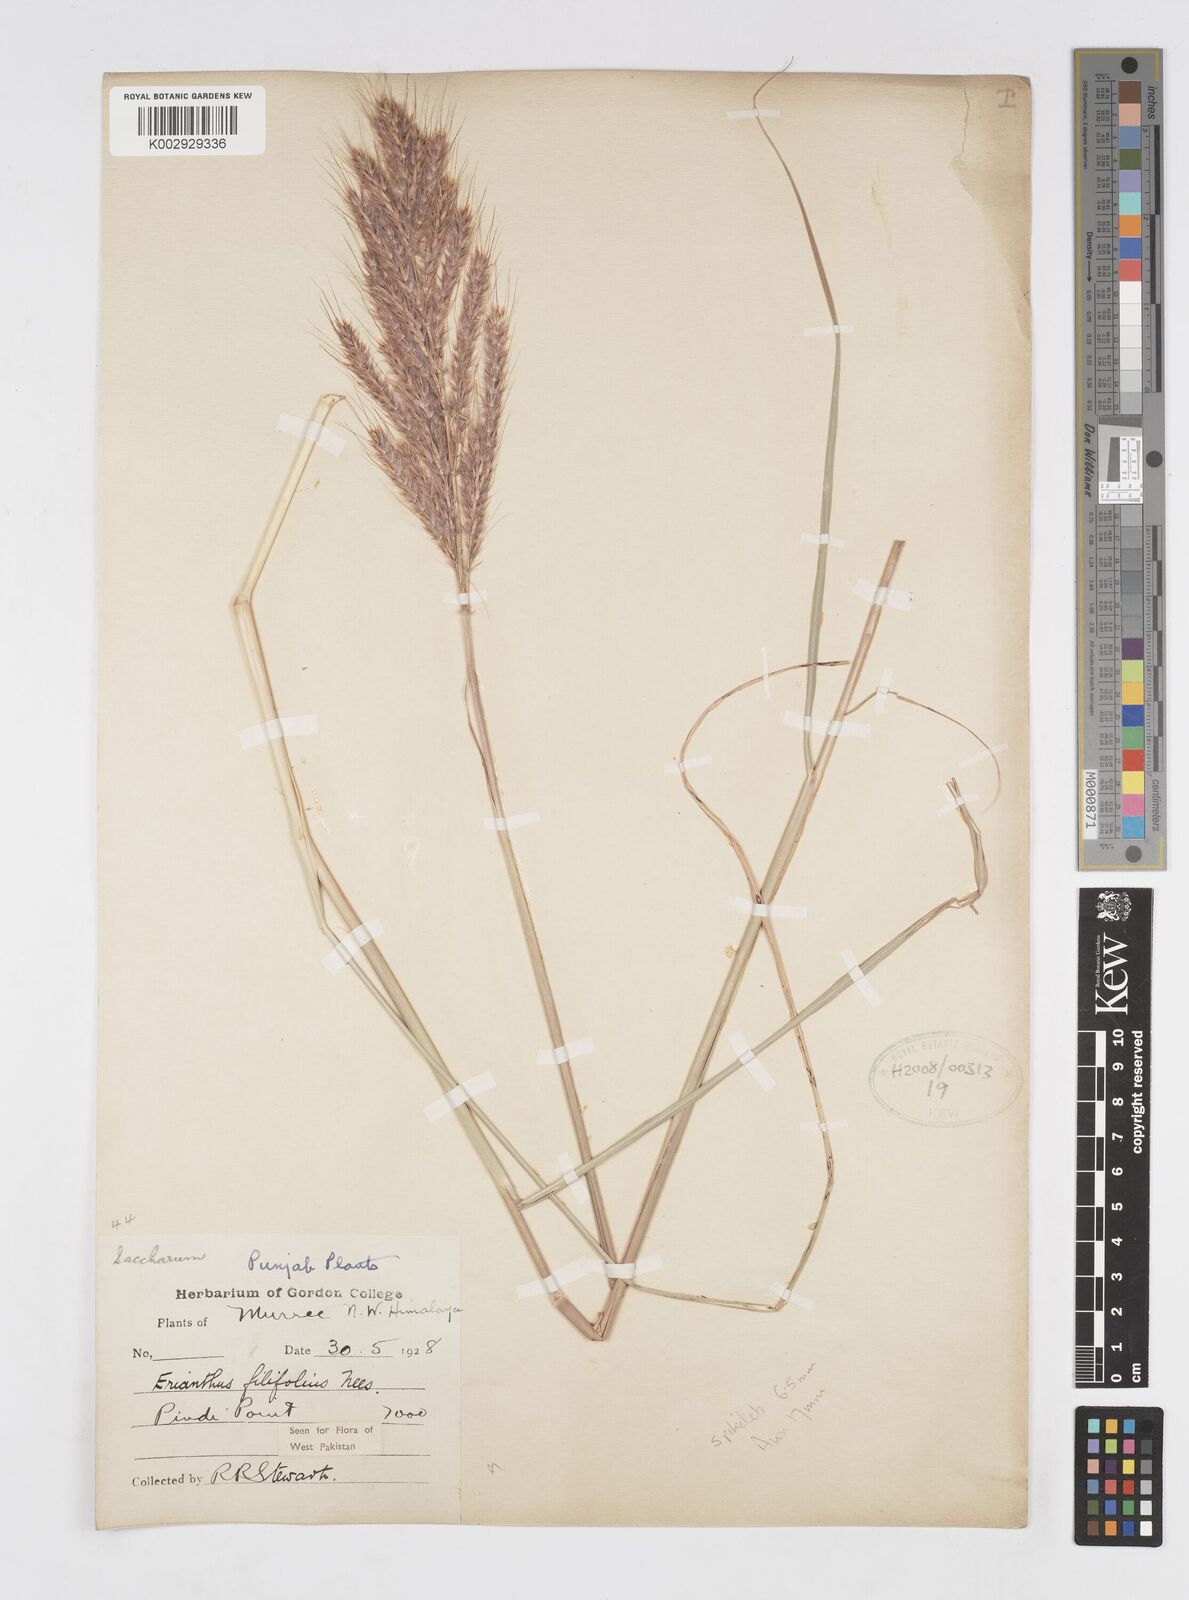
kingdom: Plantae
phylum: Tracheophyta
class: Liliopsida
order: Poales
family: Poaceae
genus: Saccharum
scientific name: Saccharum filifolium
